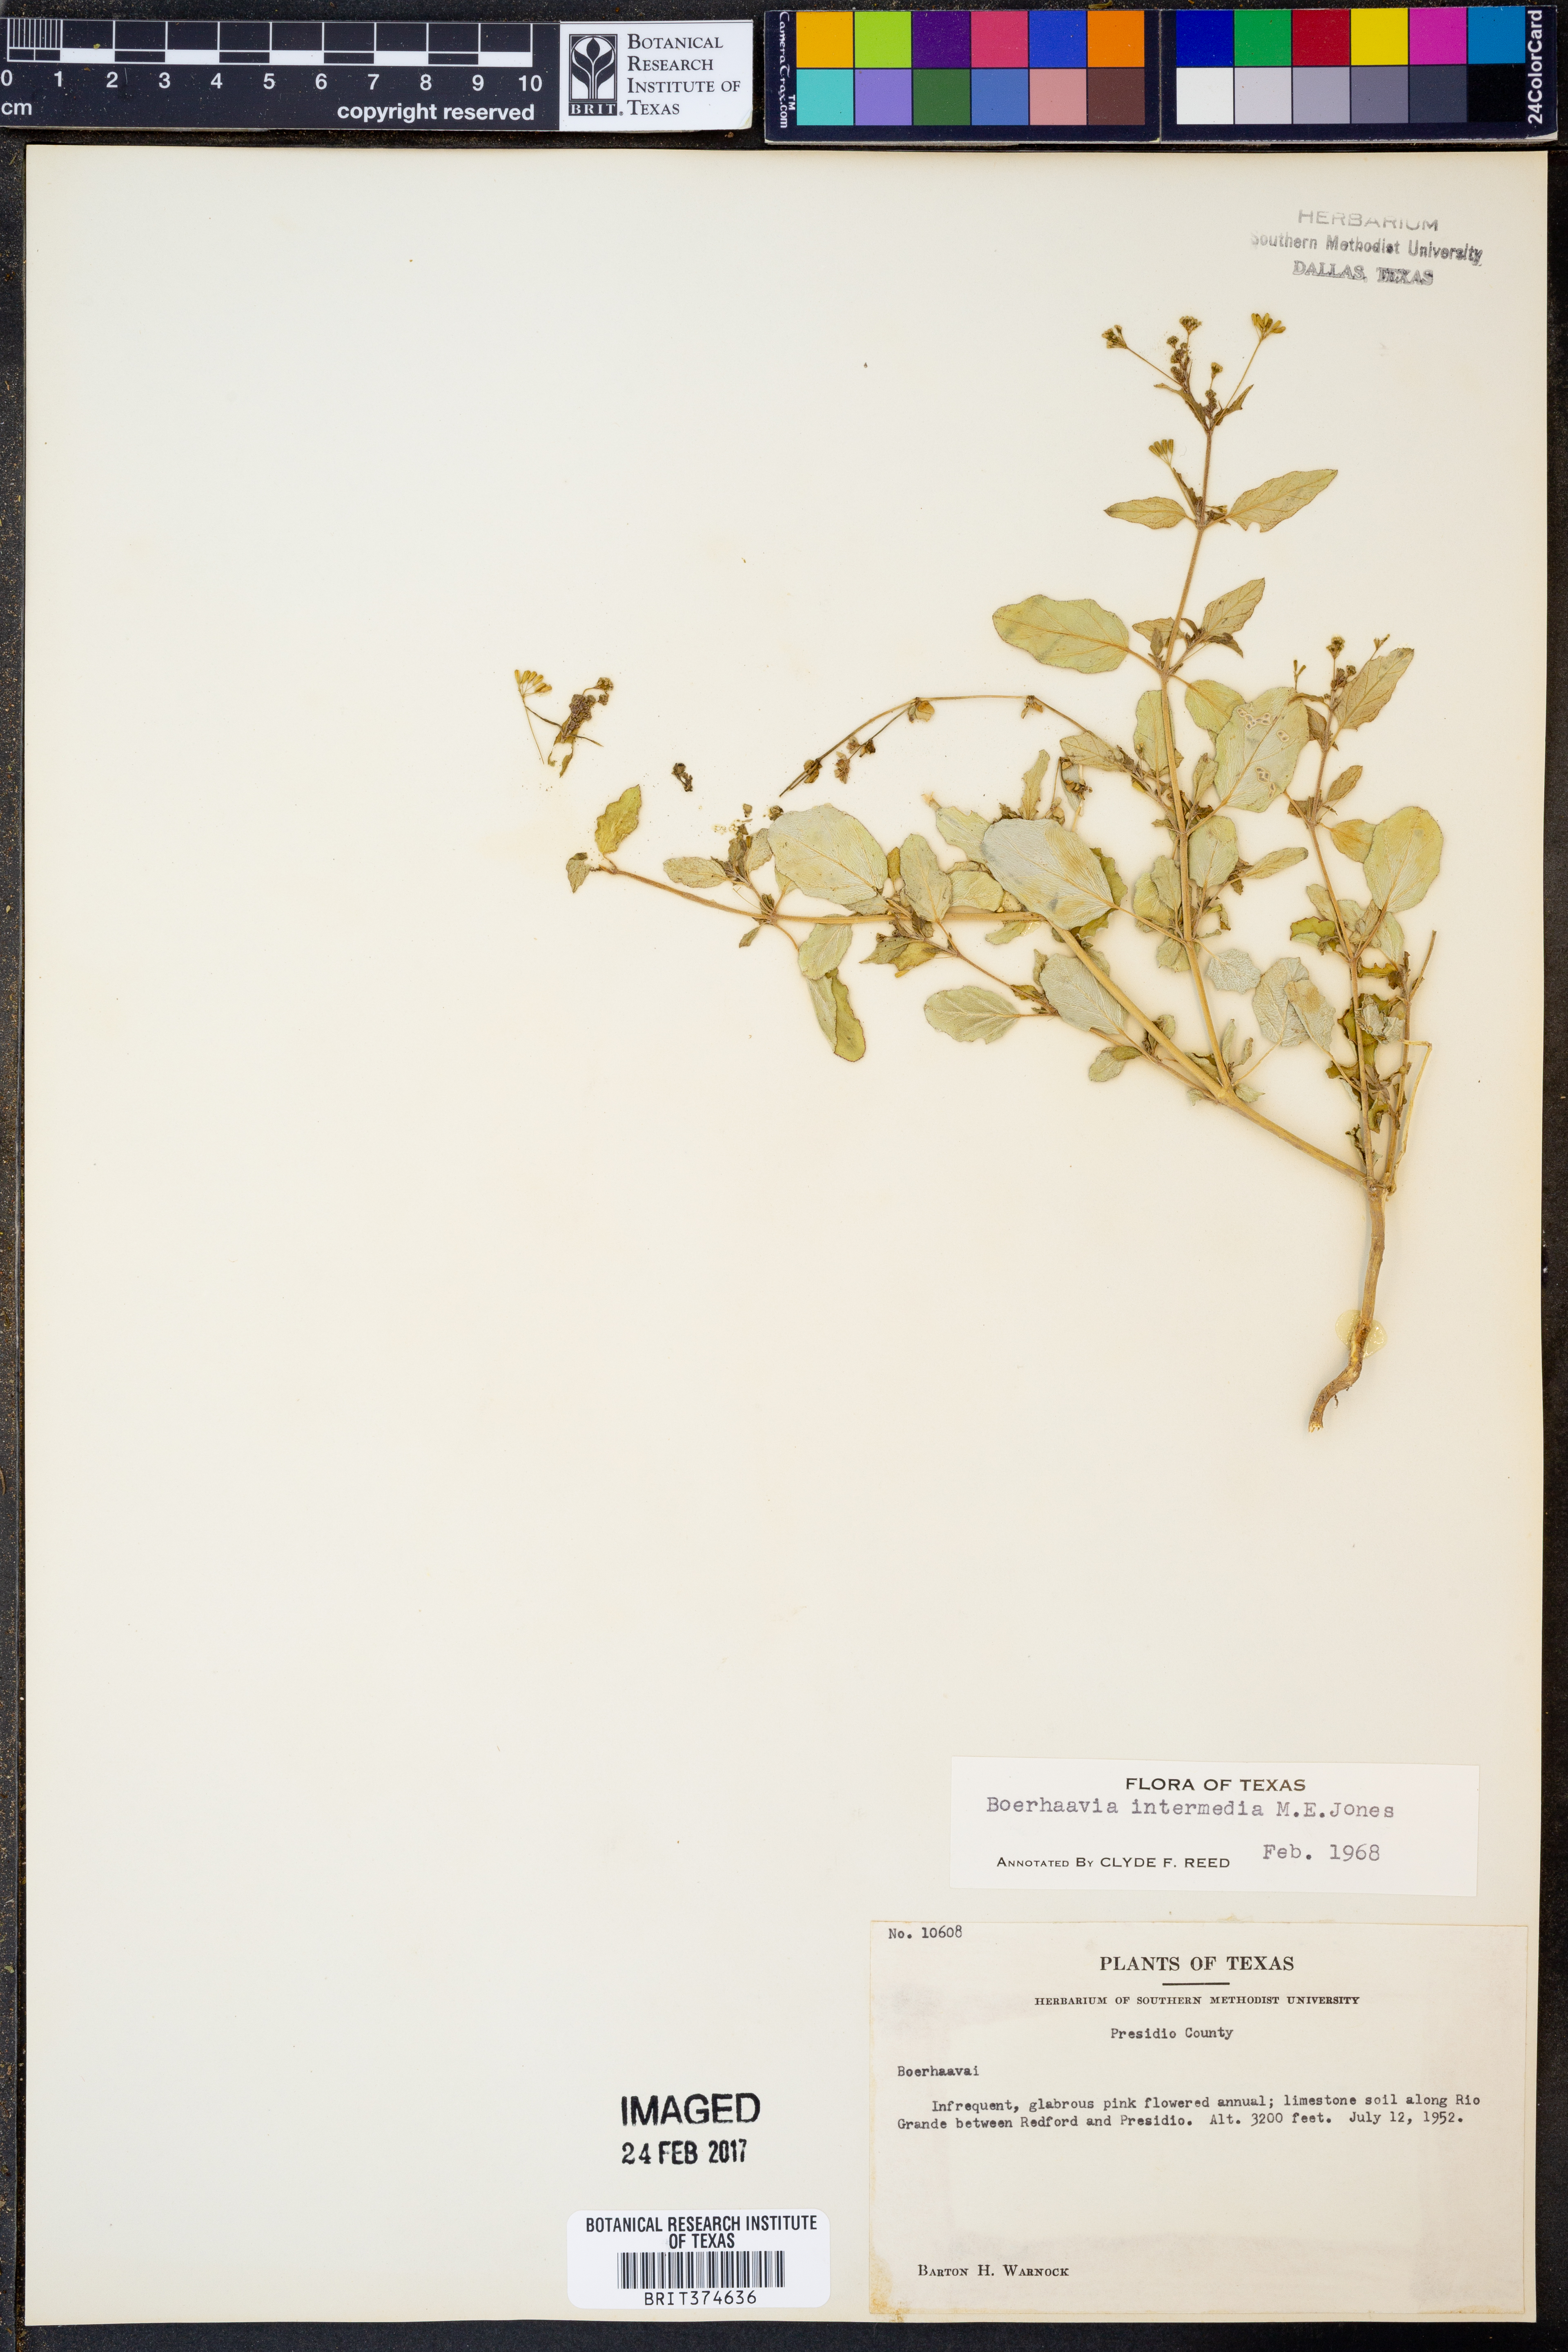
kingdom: Plantae
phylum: Tracheophyta
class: Magnoliopsida
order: Caryophyllales
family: Nyctaginaceae
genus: Boerhavia
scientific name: Boerhavia triquetra
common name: Creeping sticky-stem
